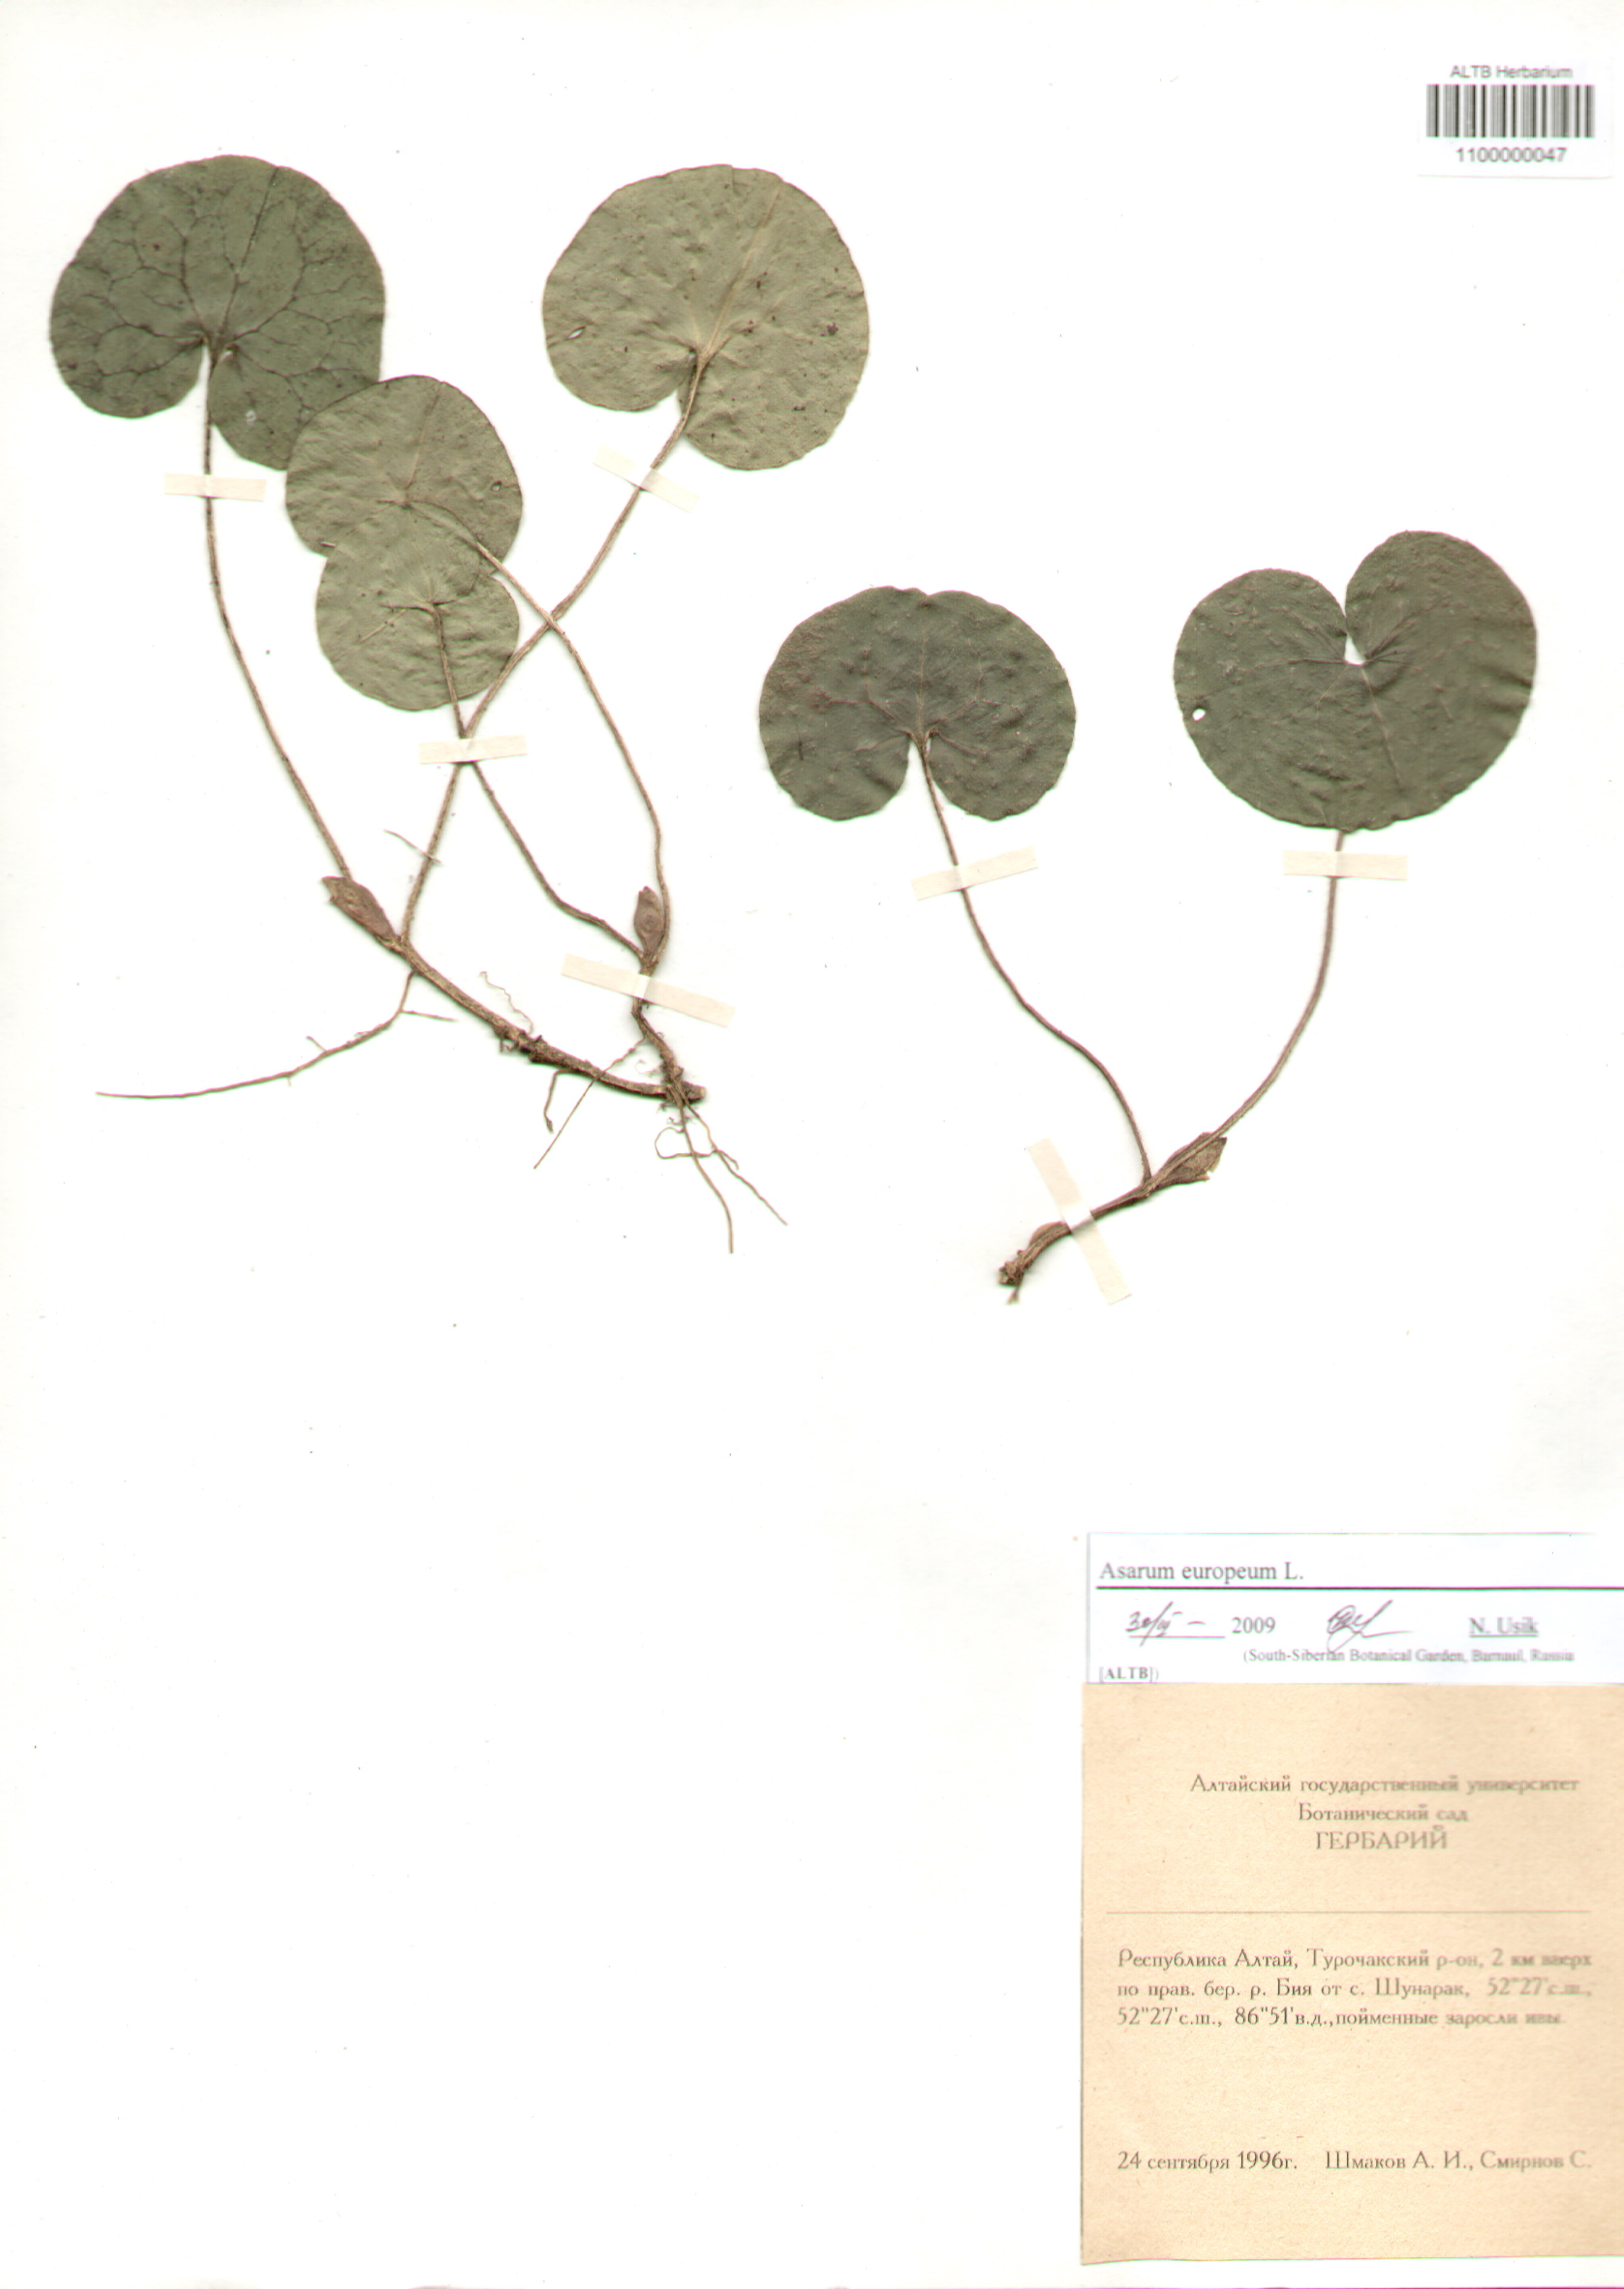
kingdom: Plantae
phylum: Tracheophyta
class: Magnoliopsida
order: Piperales
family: Aristolochiaceae
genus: Asarum
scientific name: Asarum europaeum
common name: Asarabacca
